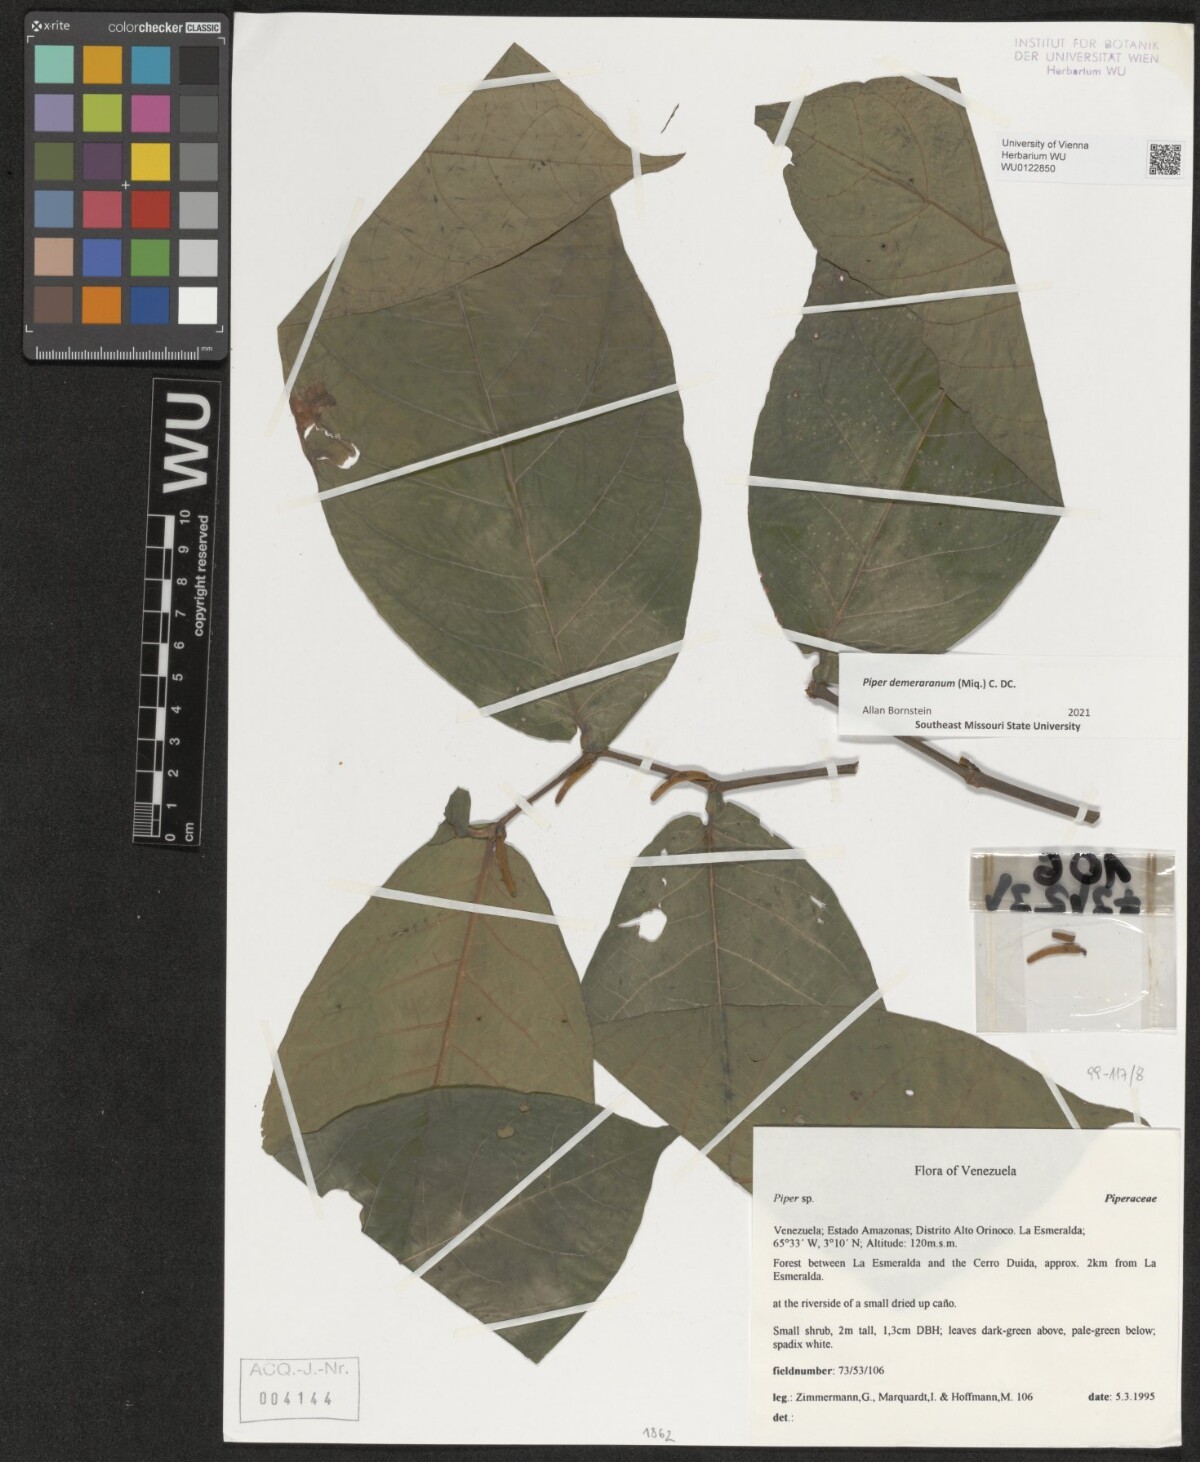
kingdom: Plantae
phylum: Tracheophyta
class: Magnoliopsida
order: Piperales
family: Piperaceae
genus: Piper
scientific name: Piper demeraranum
